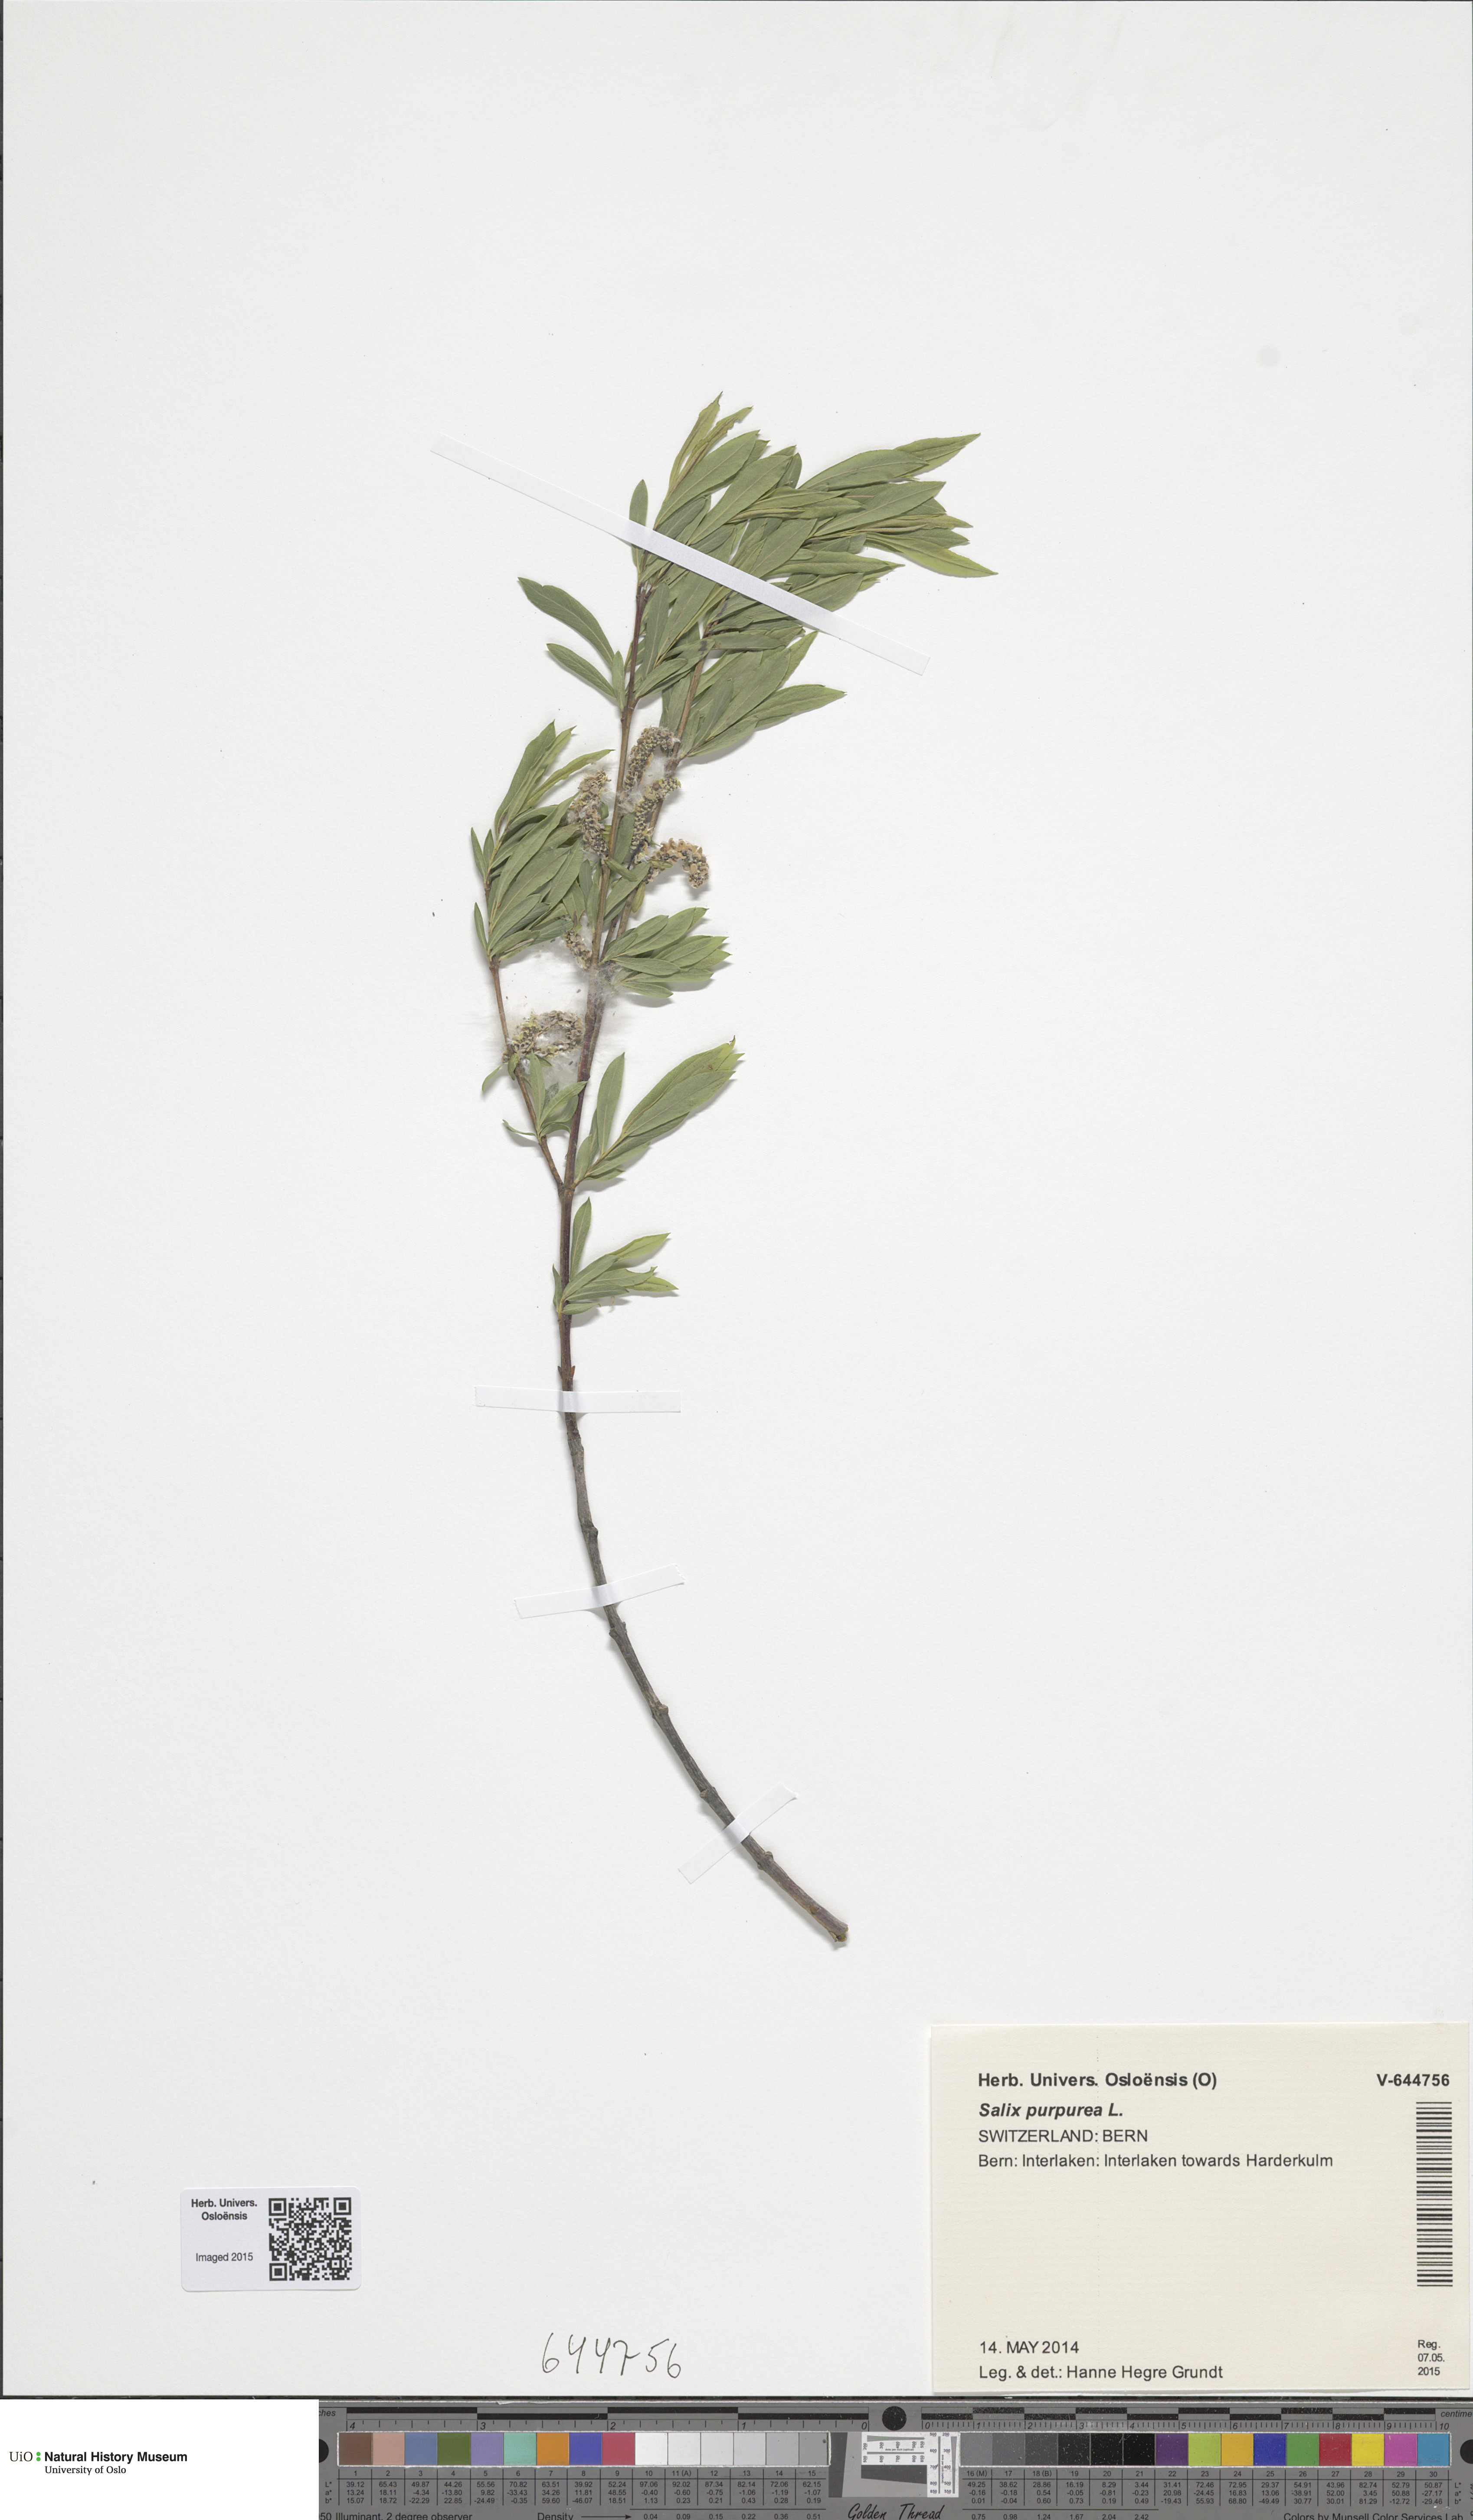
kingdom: Plantae
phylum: Tracheophyta
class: Magnoliopsida
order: Malpighiales
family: Salicaceae
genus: Salix
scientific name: Salix purpurea
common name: Purple willow
